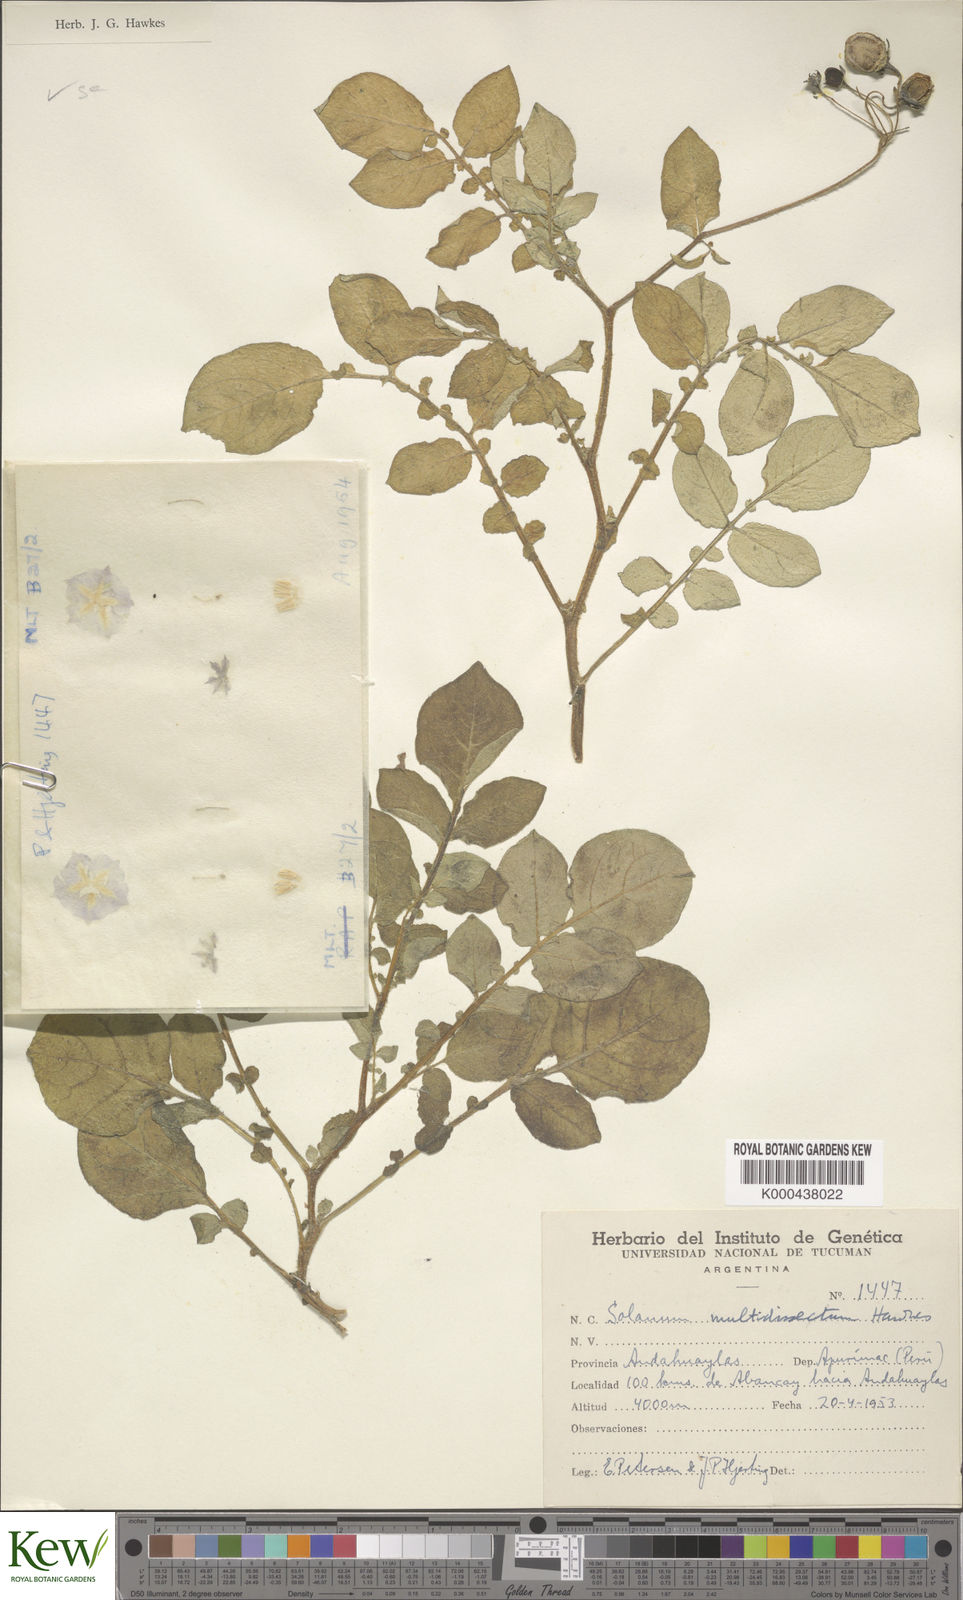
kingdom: Plantae
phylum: Tracheophyta
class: Magnoliopsida
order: Solanales
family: Solanaceae
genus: Solanum
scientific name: Solanum candolleanum
